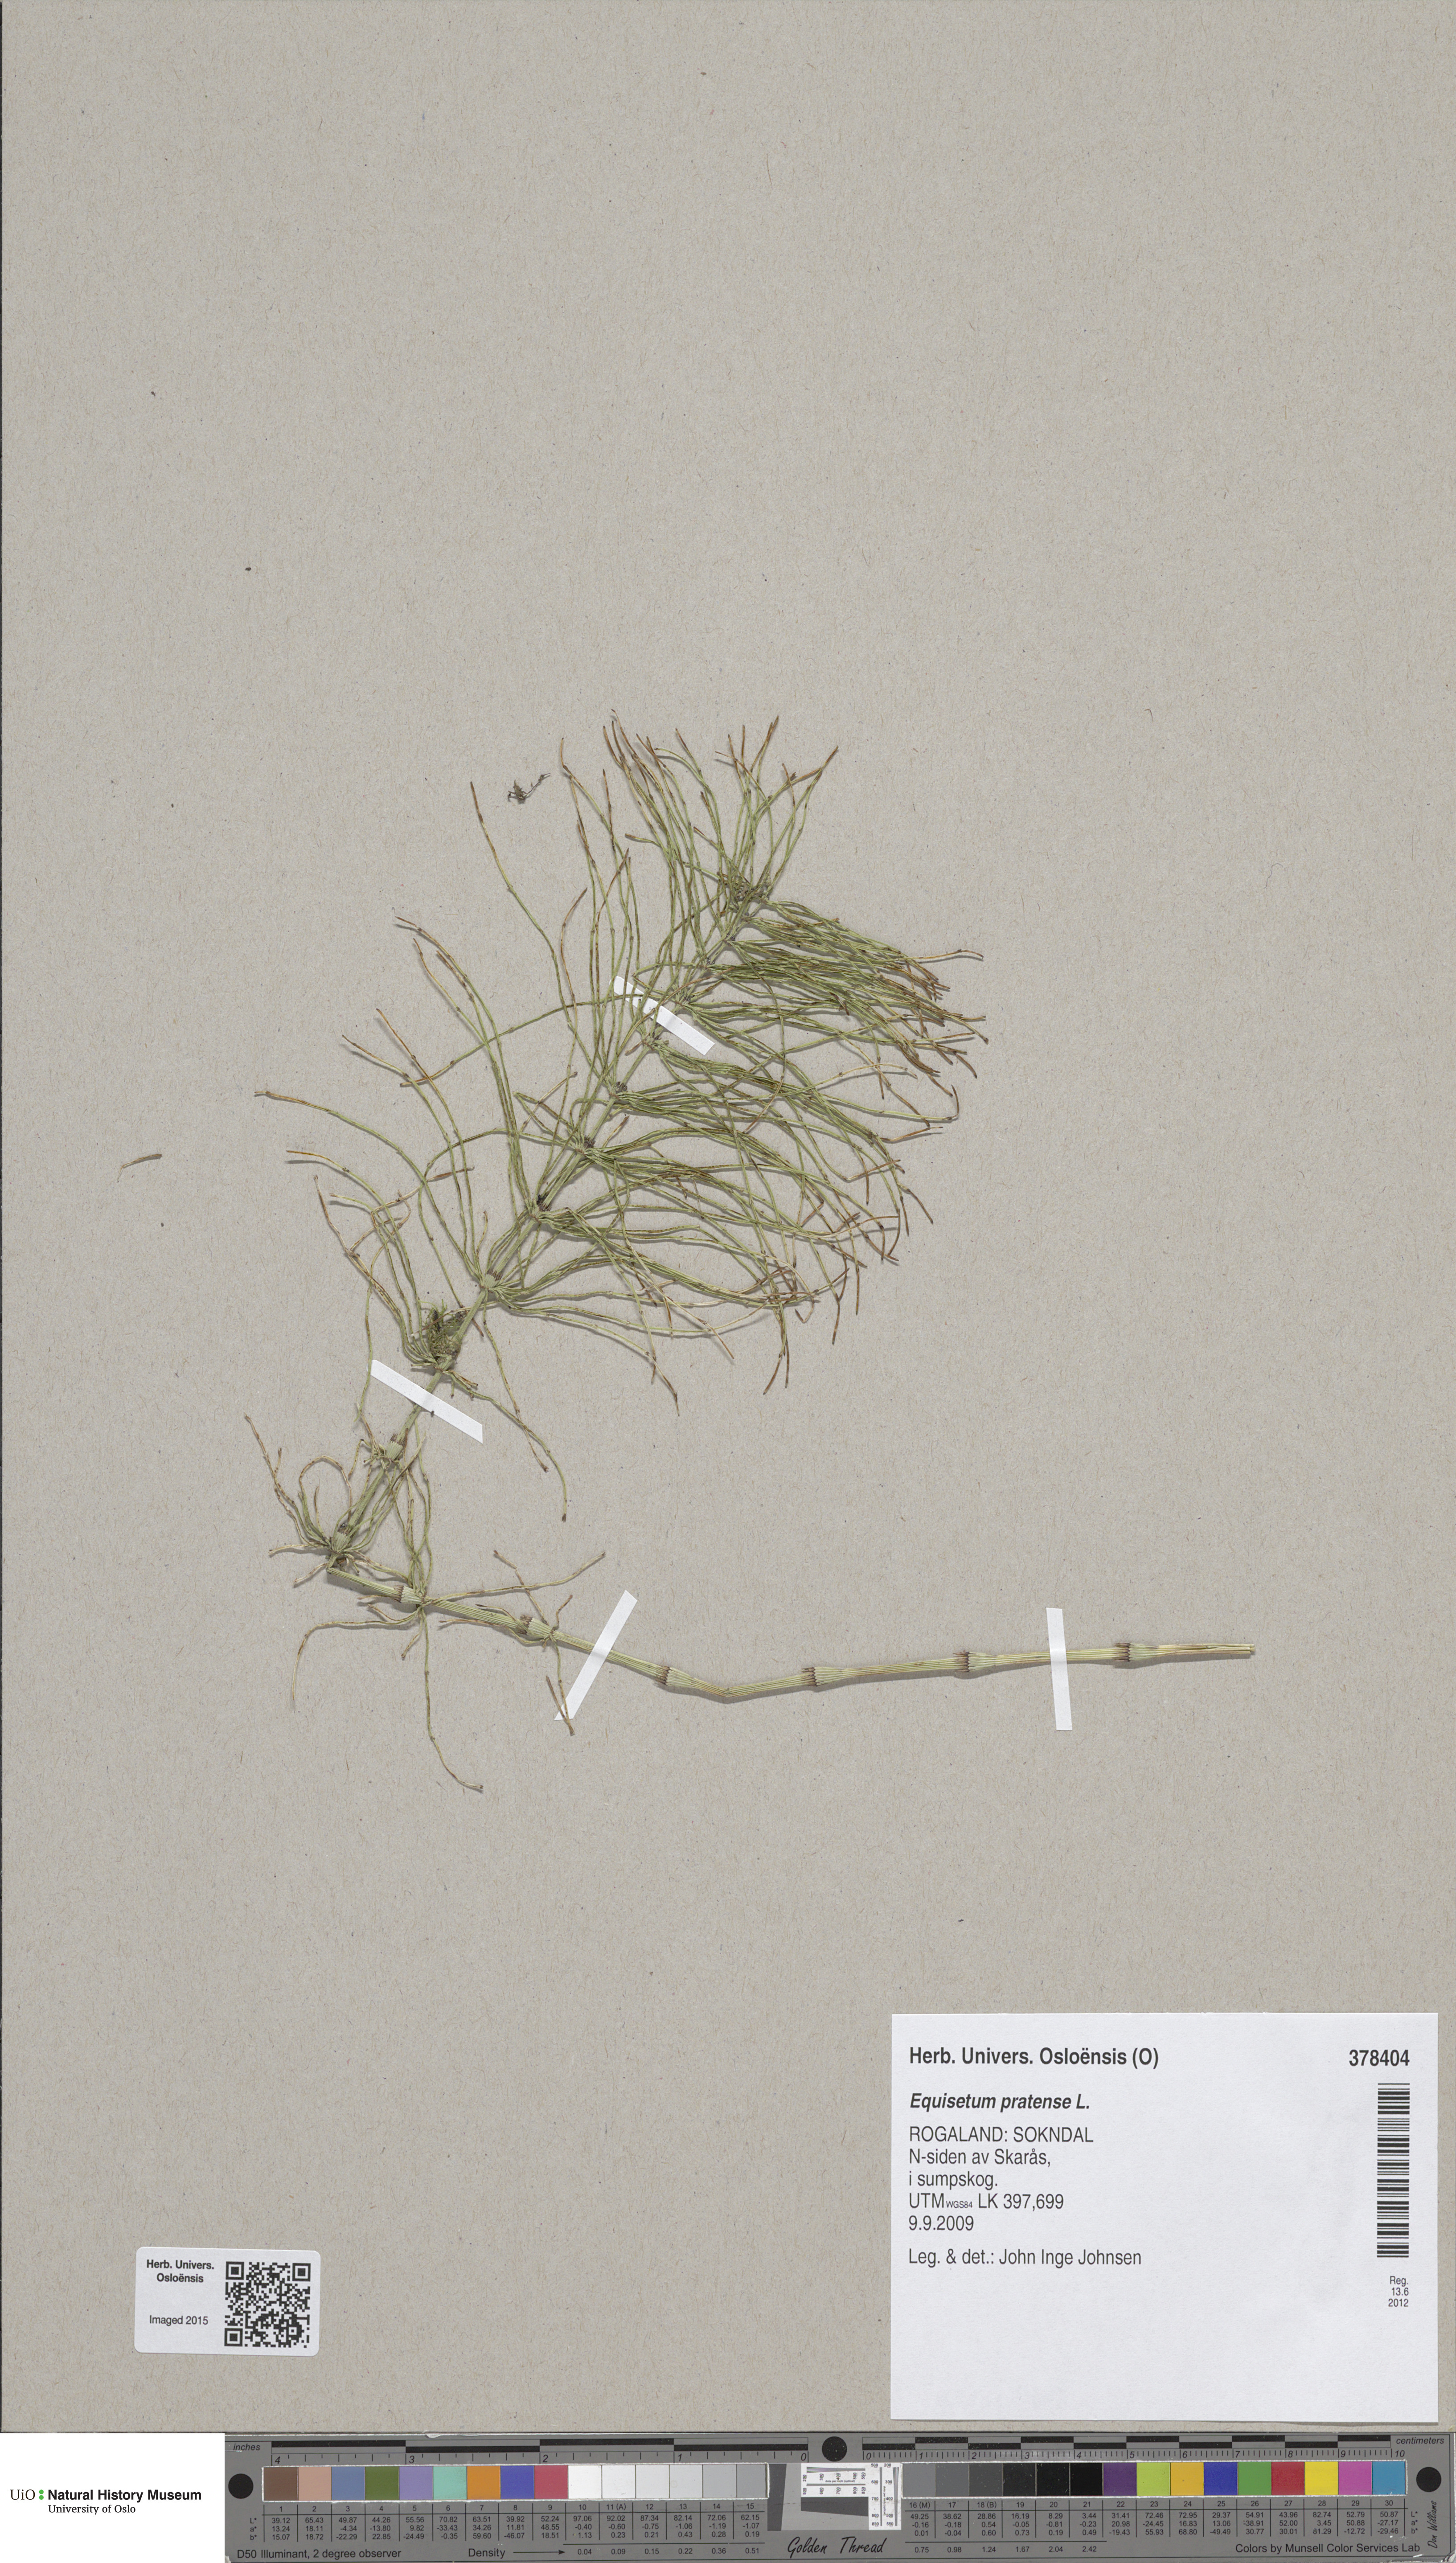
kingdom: Plantae
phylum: Tracheophyta
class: Polypodiopsida
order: Equisetales
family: Equisetaceae
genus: Equisetum
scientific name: Equisetum pratense
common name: Meadow horsetail
